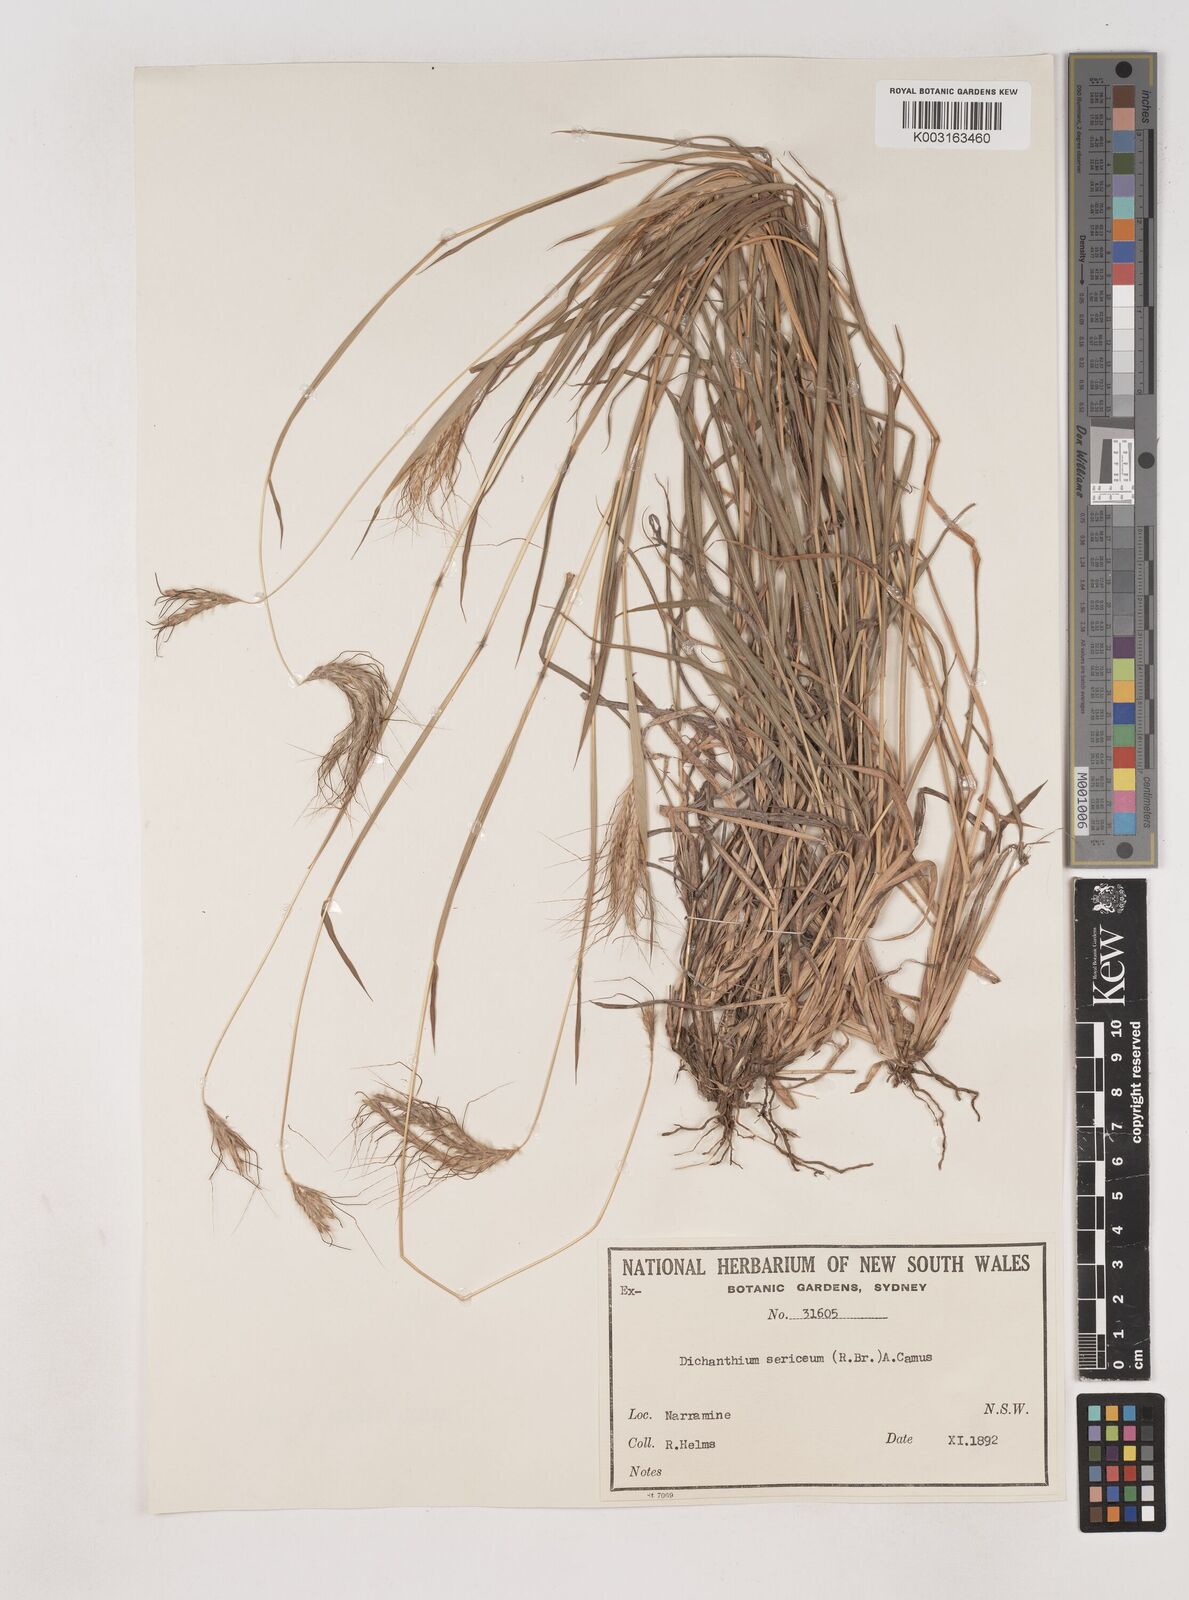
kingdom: Plantae
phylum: Tracheophyta
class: Liliopsida
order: Poales
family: Poaceae
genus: Dichanthium
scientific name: Dichanthium sericeum
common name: Silky bluestem
